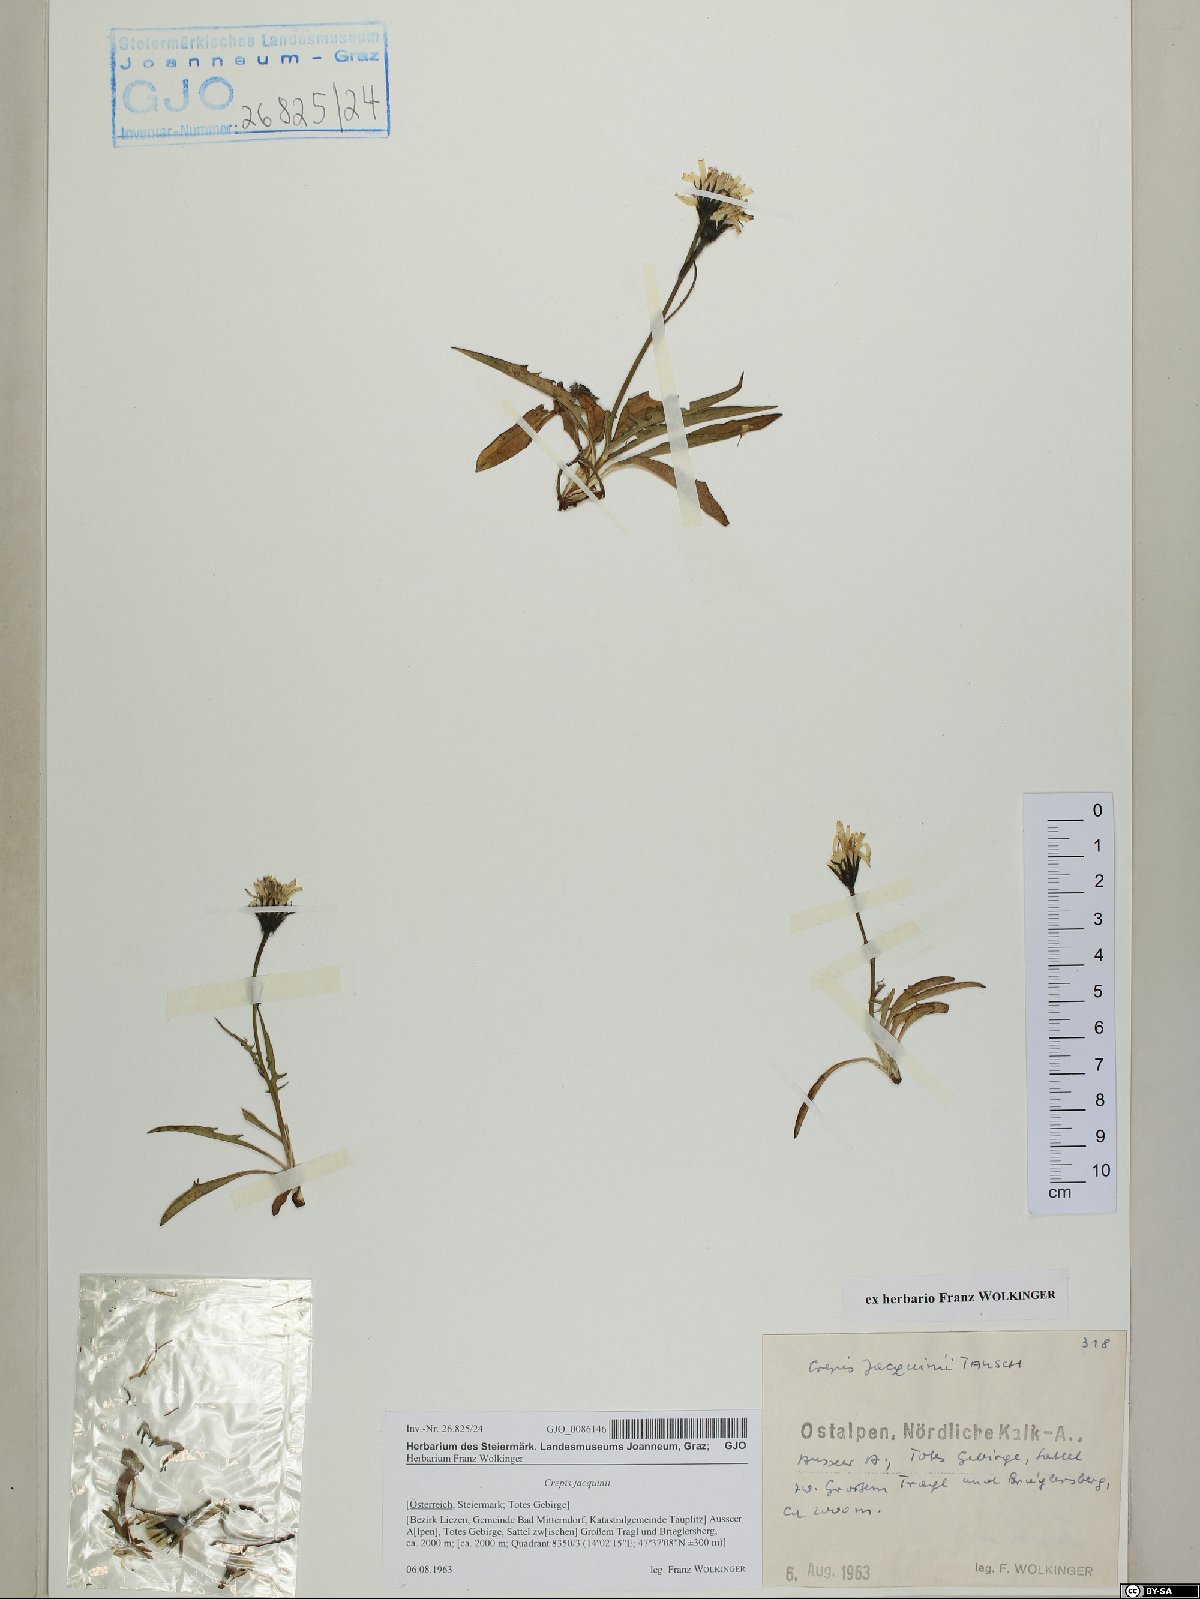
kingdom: Plantae
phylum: Tracheophyta
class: Magnoliopsida
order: Asterales
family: Asteraceae
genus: Crepis
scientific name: Crepis jacquinii
